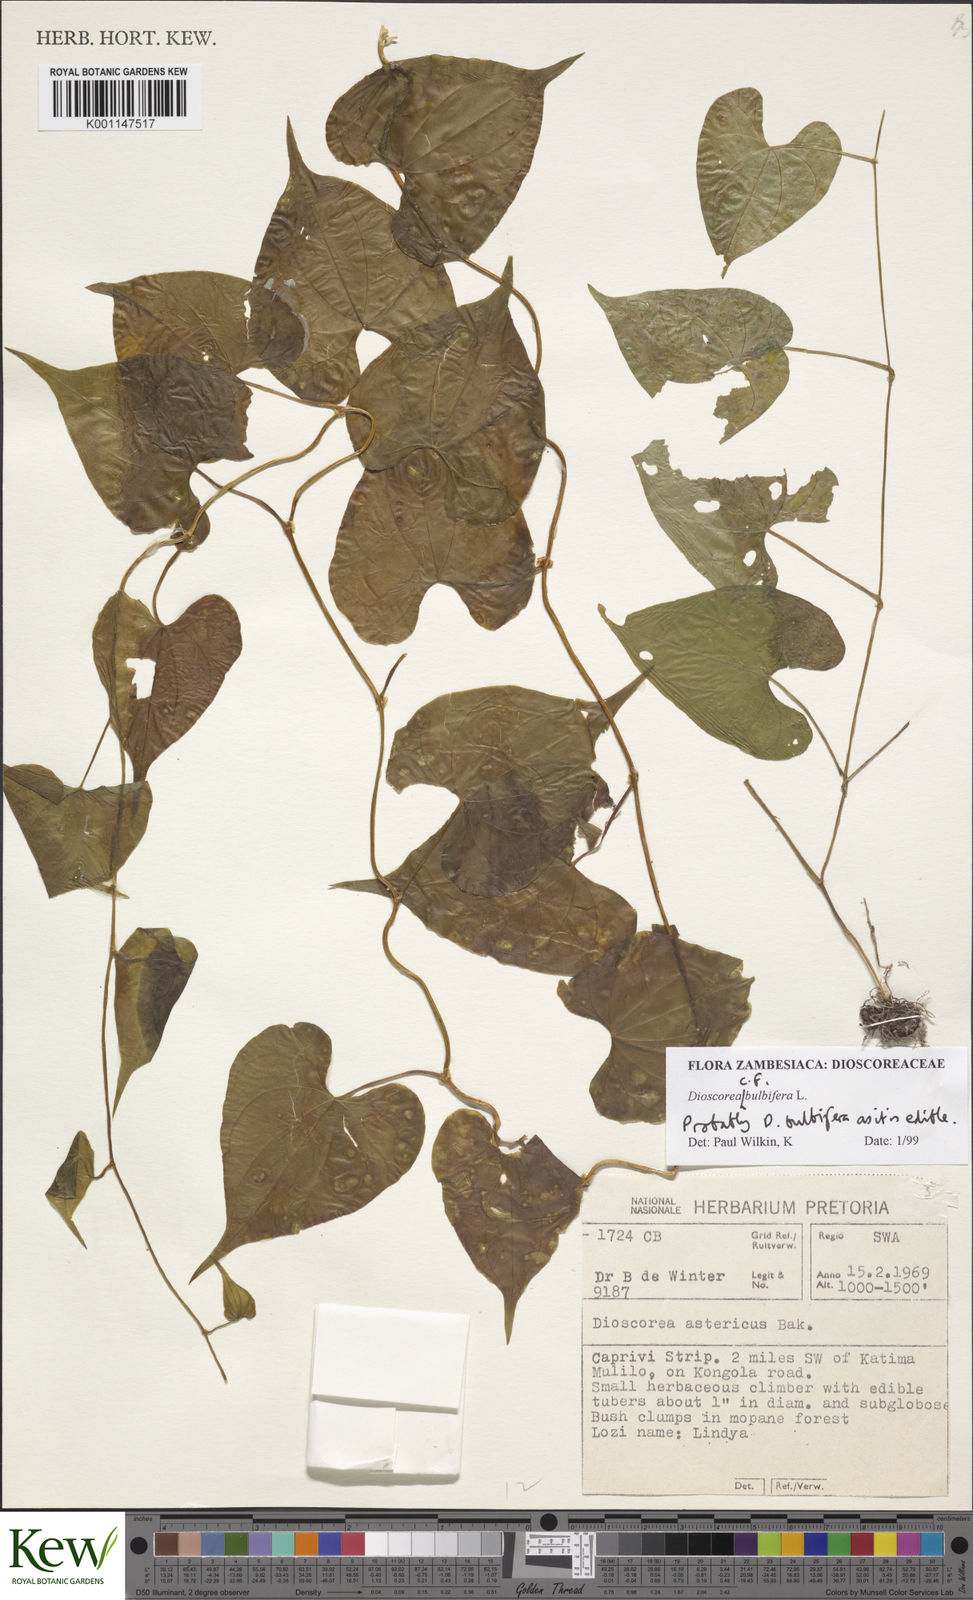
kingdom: Plantae
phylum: Tracheophyta
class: Liliopsida
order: Dioscoreales
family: Dioscoreaceae
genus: Dioscorea
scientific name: Dioscorea bulbifera
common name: Air yam
